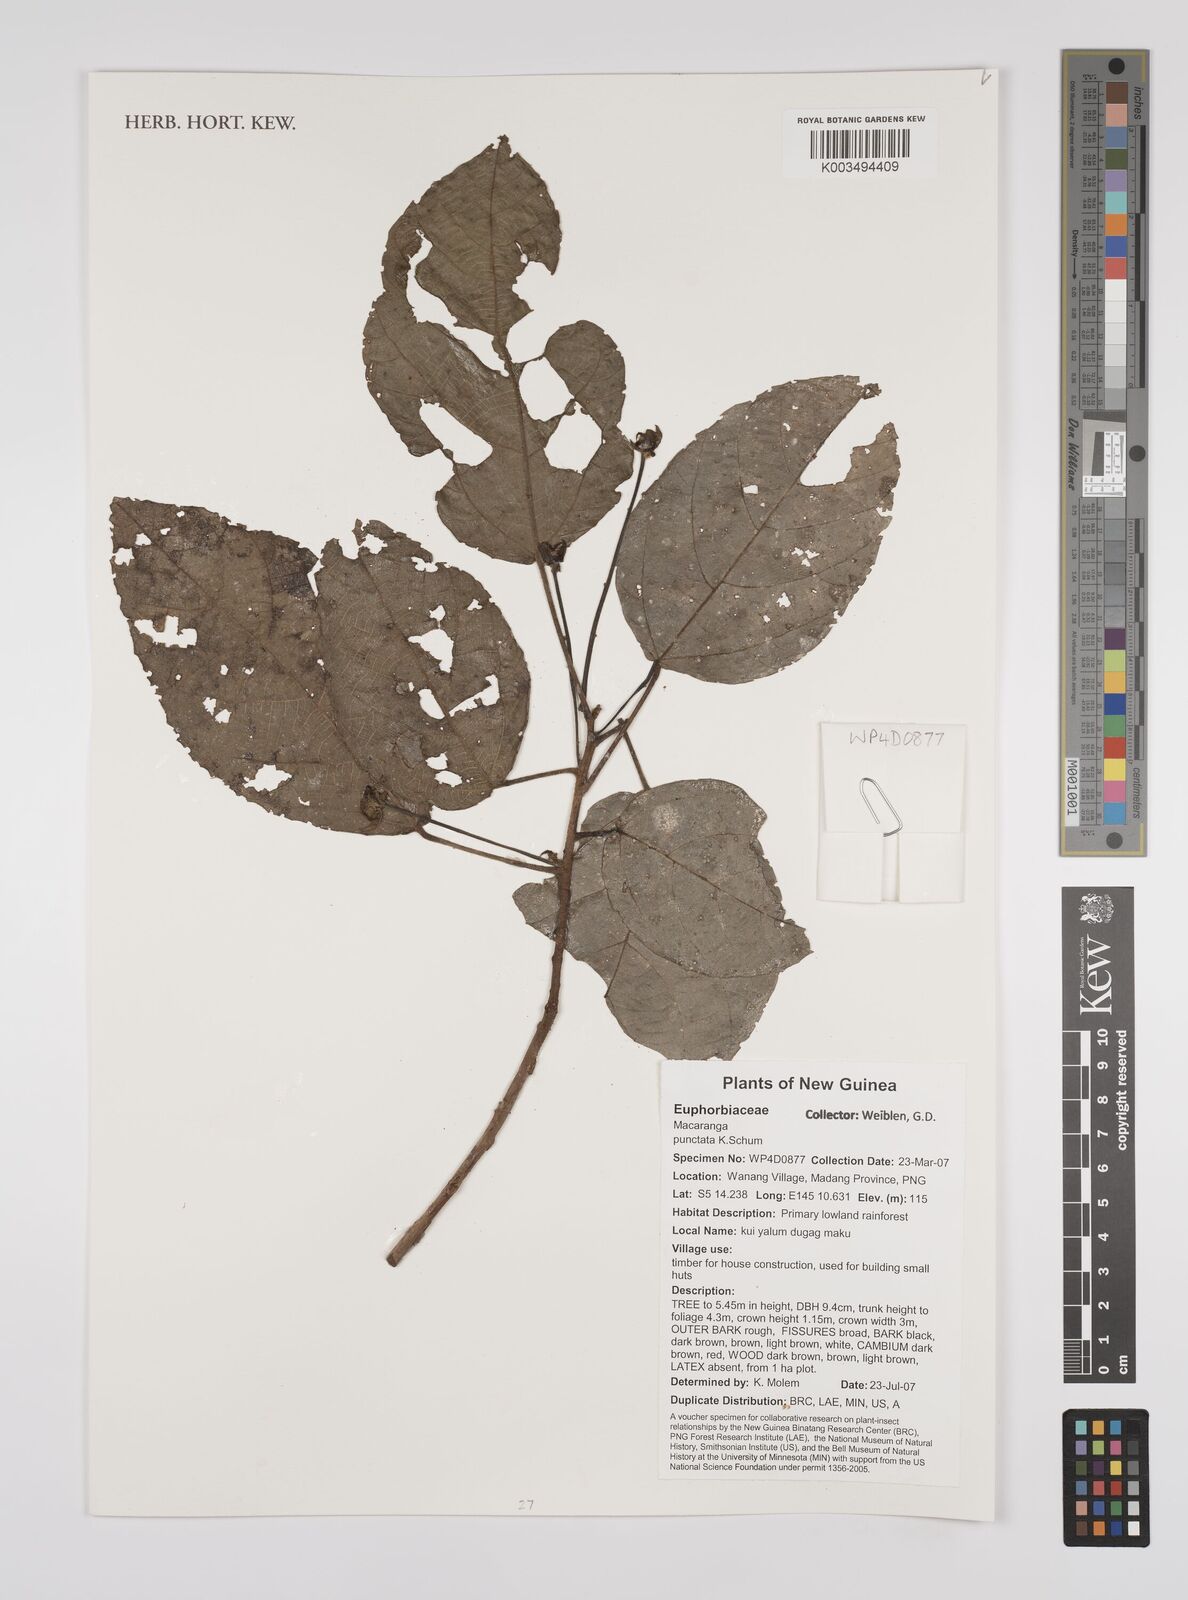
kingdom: Plantae
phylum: Tracheophyta
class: Magnoliopsida
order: Malpighiales
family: Euphorbiaceae
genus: Macaranga
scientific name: Macaranga punctata
